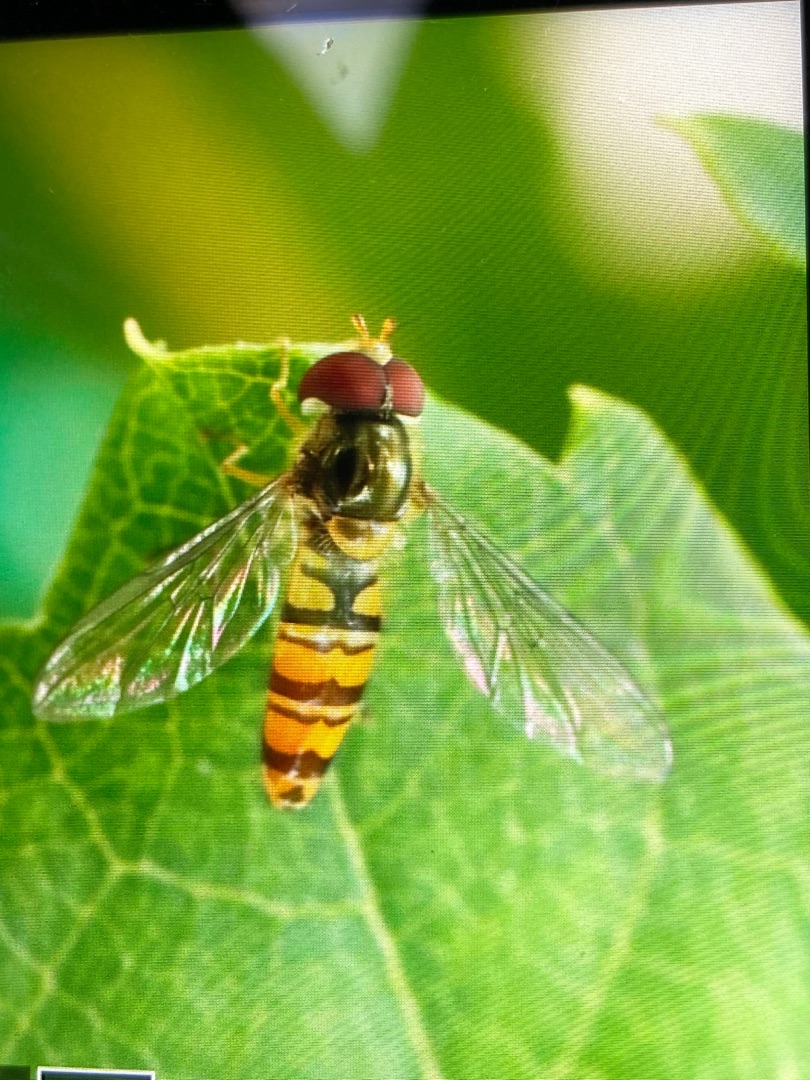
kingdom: Animalia
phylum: Arthropoda
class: Insecta
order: Diptera
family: Syrphidae
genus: Episyrphus
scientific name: Episyrphus balteatus
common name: Dobbeltbåndet svirreflue
